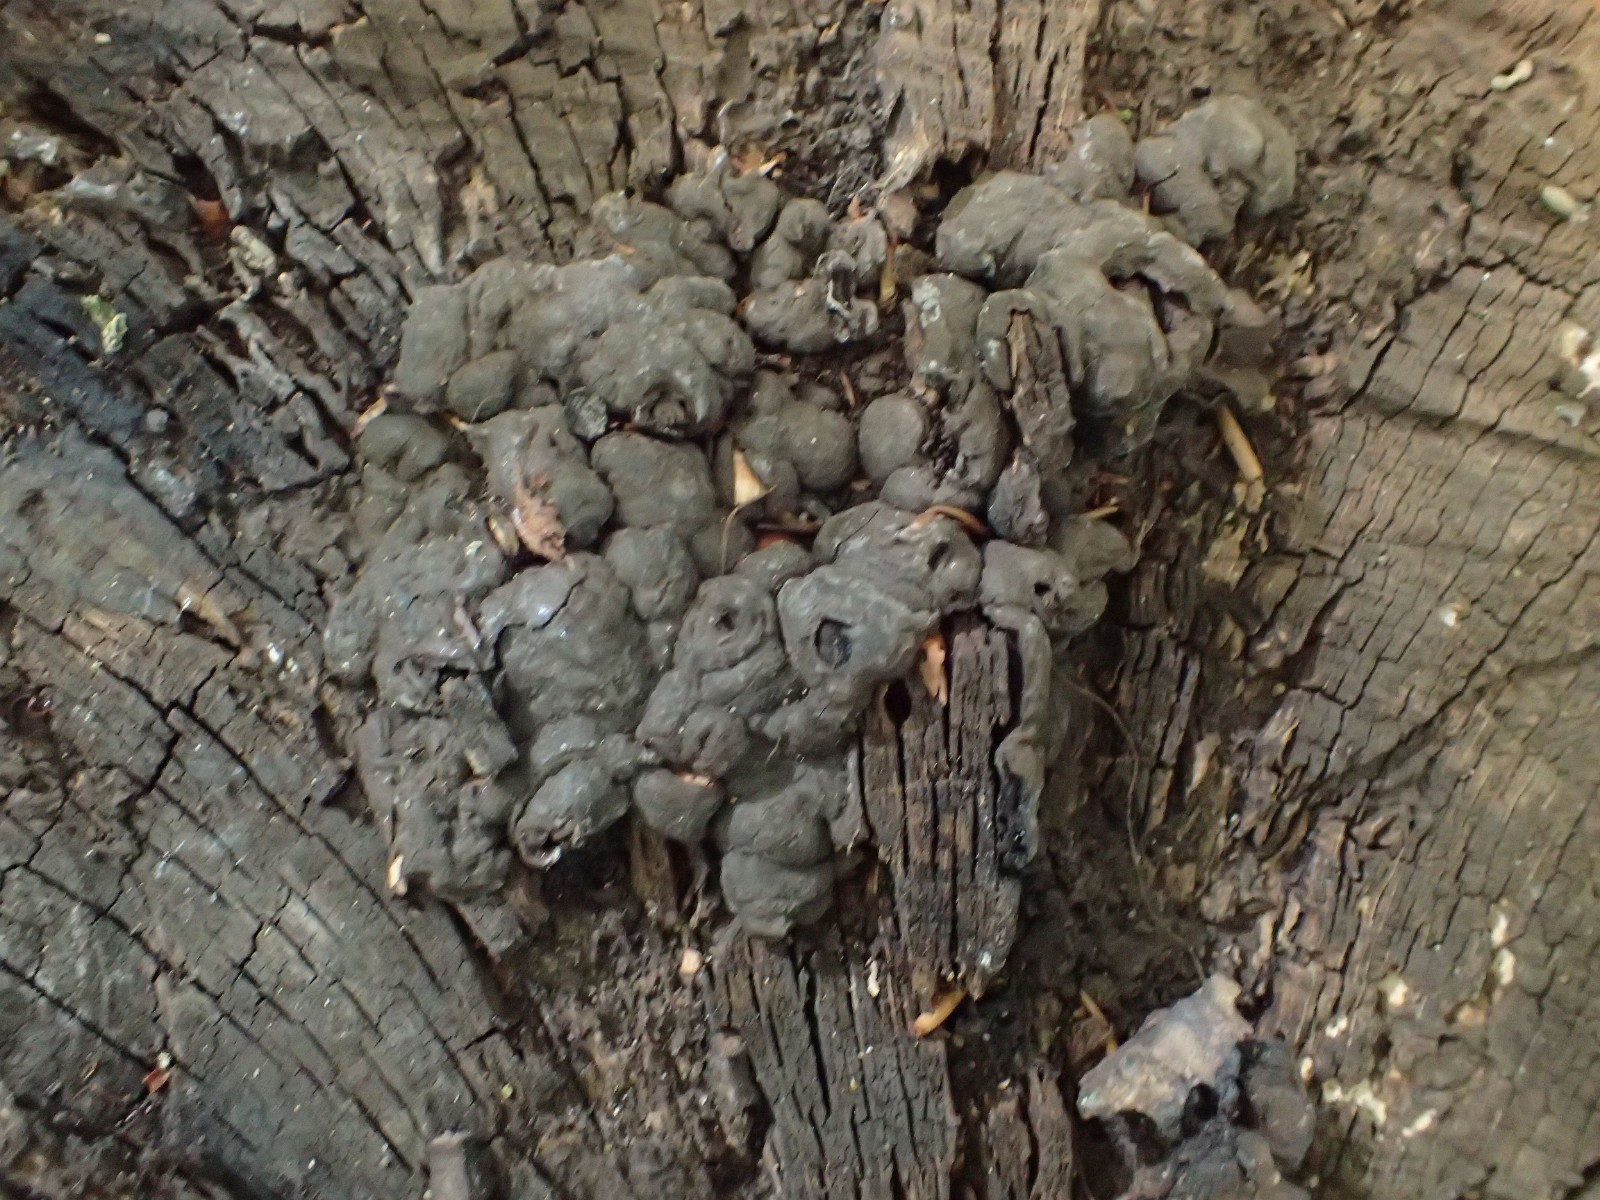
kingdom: Fungi
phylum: Ascomycota
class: Sordariomycetes
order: Xylariales
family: Xylariaceae
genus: Kretzschmaria
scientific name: Kretzschmaria deusta
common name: stor kulsvamp
